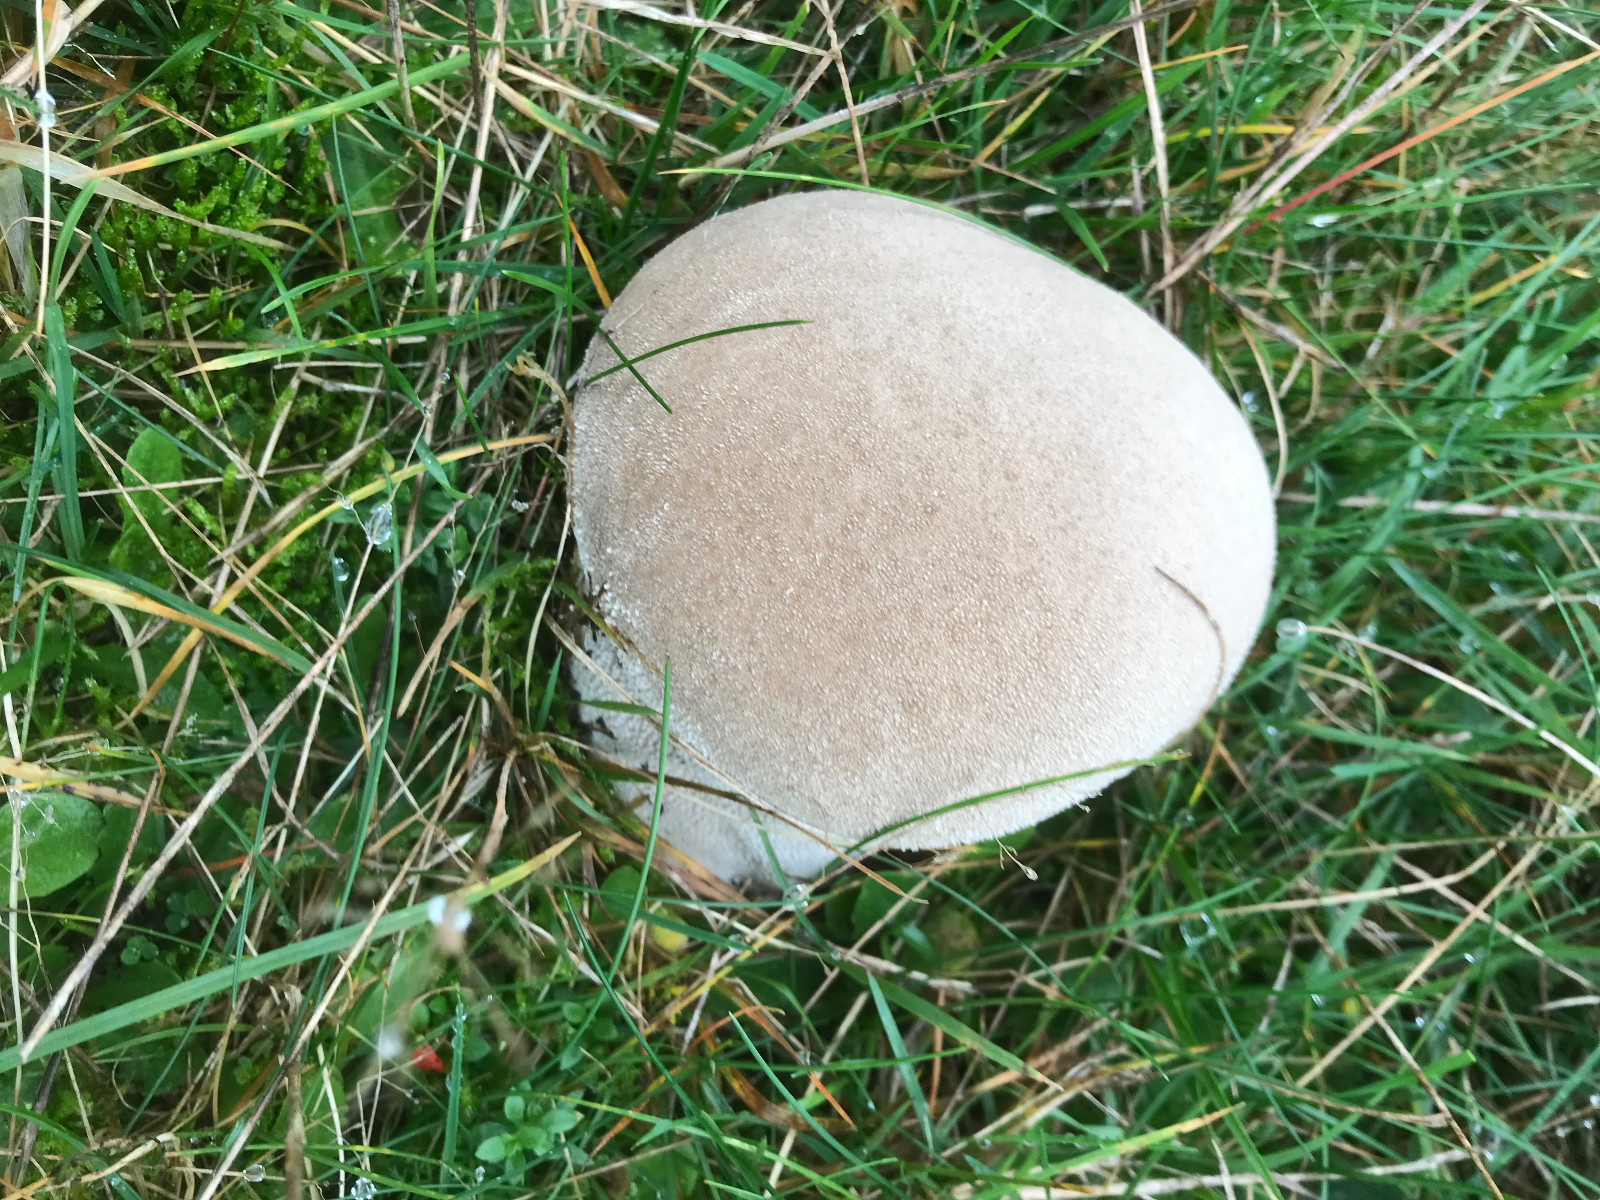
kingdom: Fungi
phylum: Basidiomycota
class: Agaricomycetes
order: Agaricales
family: Lycoperdaceae
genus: Bovistella
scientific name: Bovistella utriformis
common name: skællet støvbold
